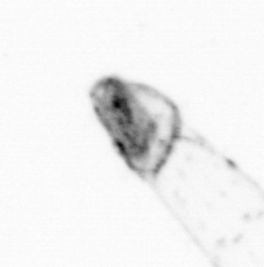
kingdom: Animalia
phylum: Chaetognatha
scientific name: Chaetognatha
